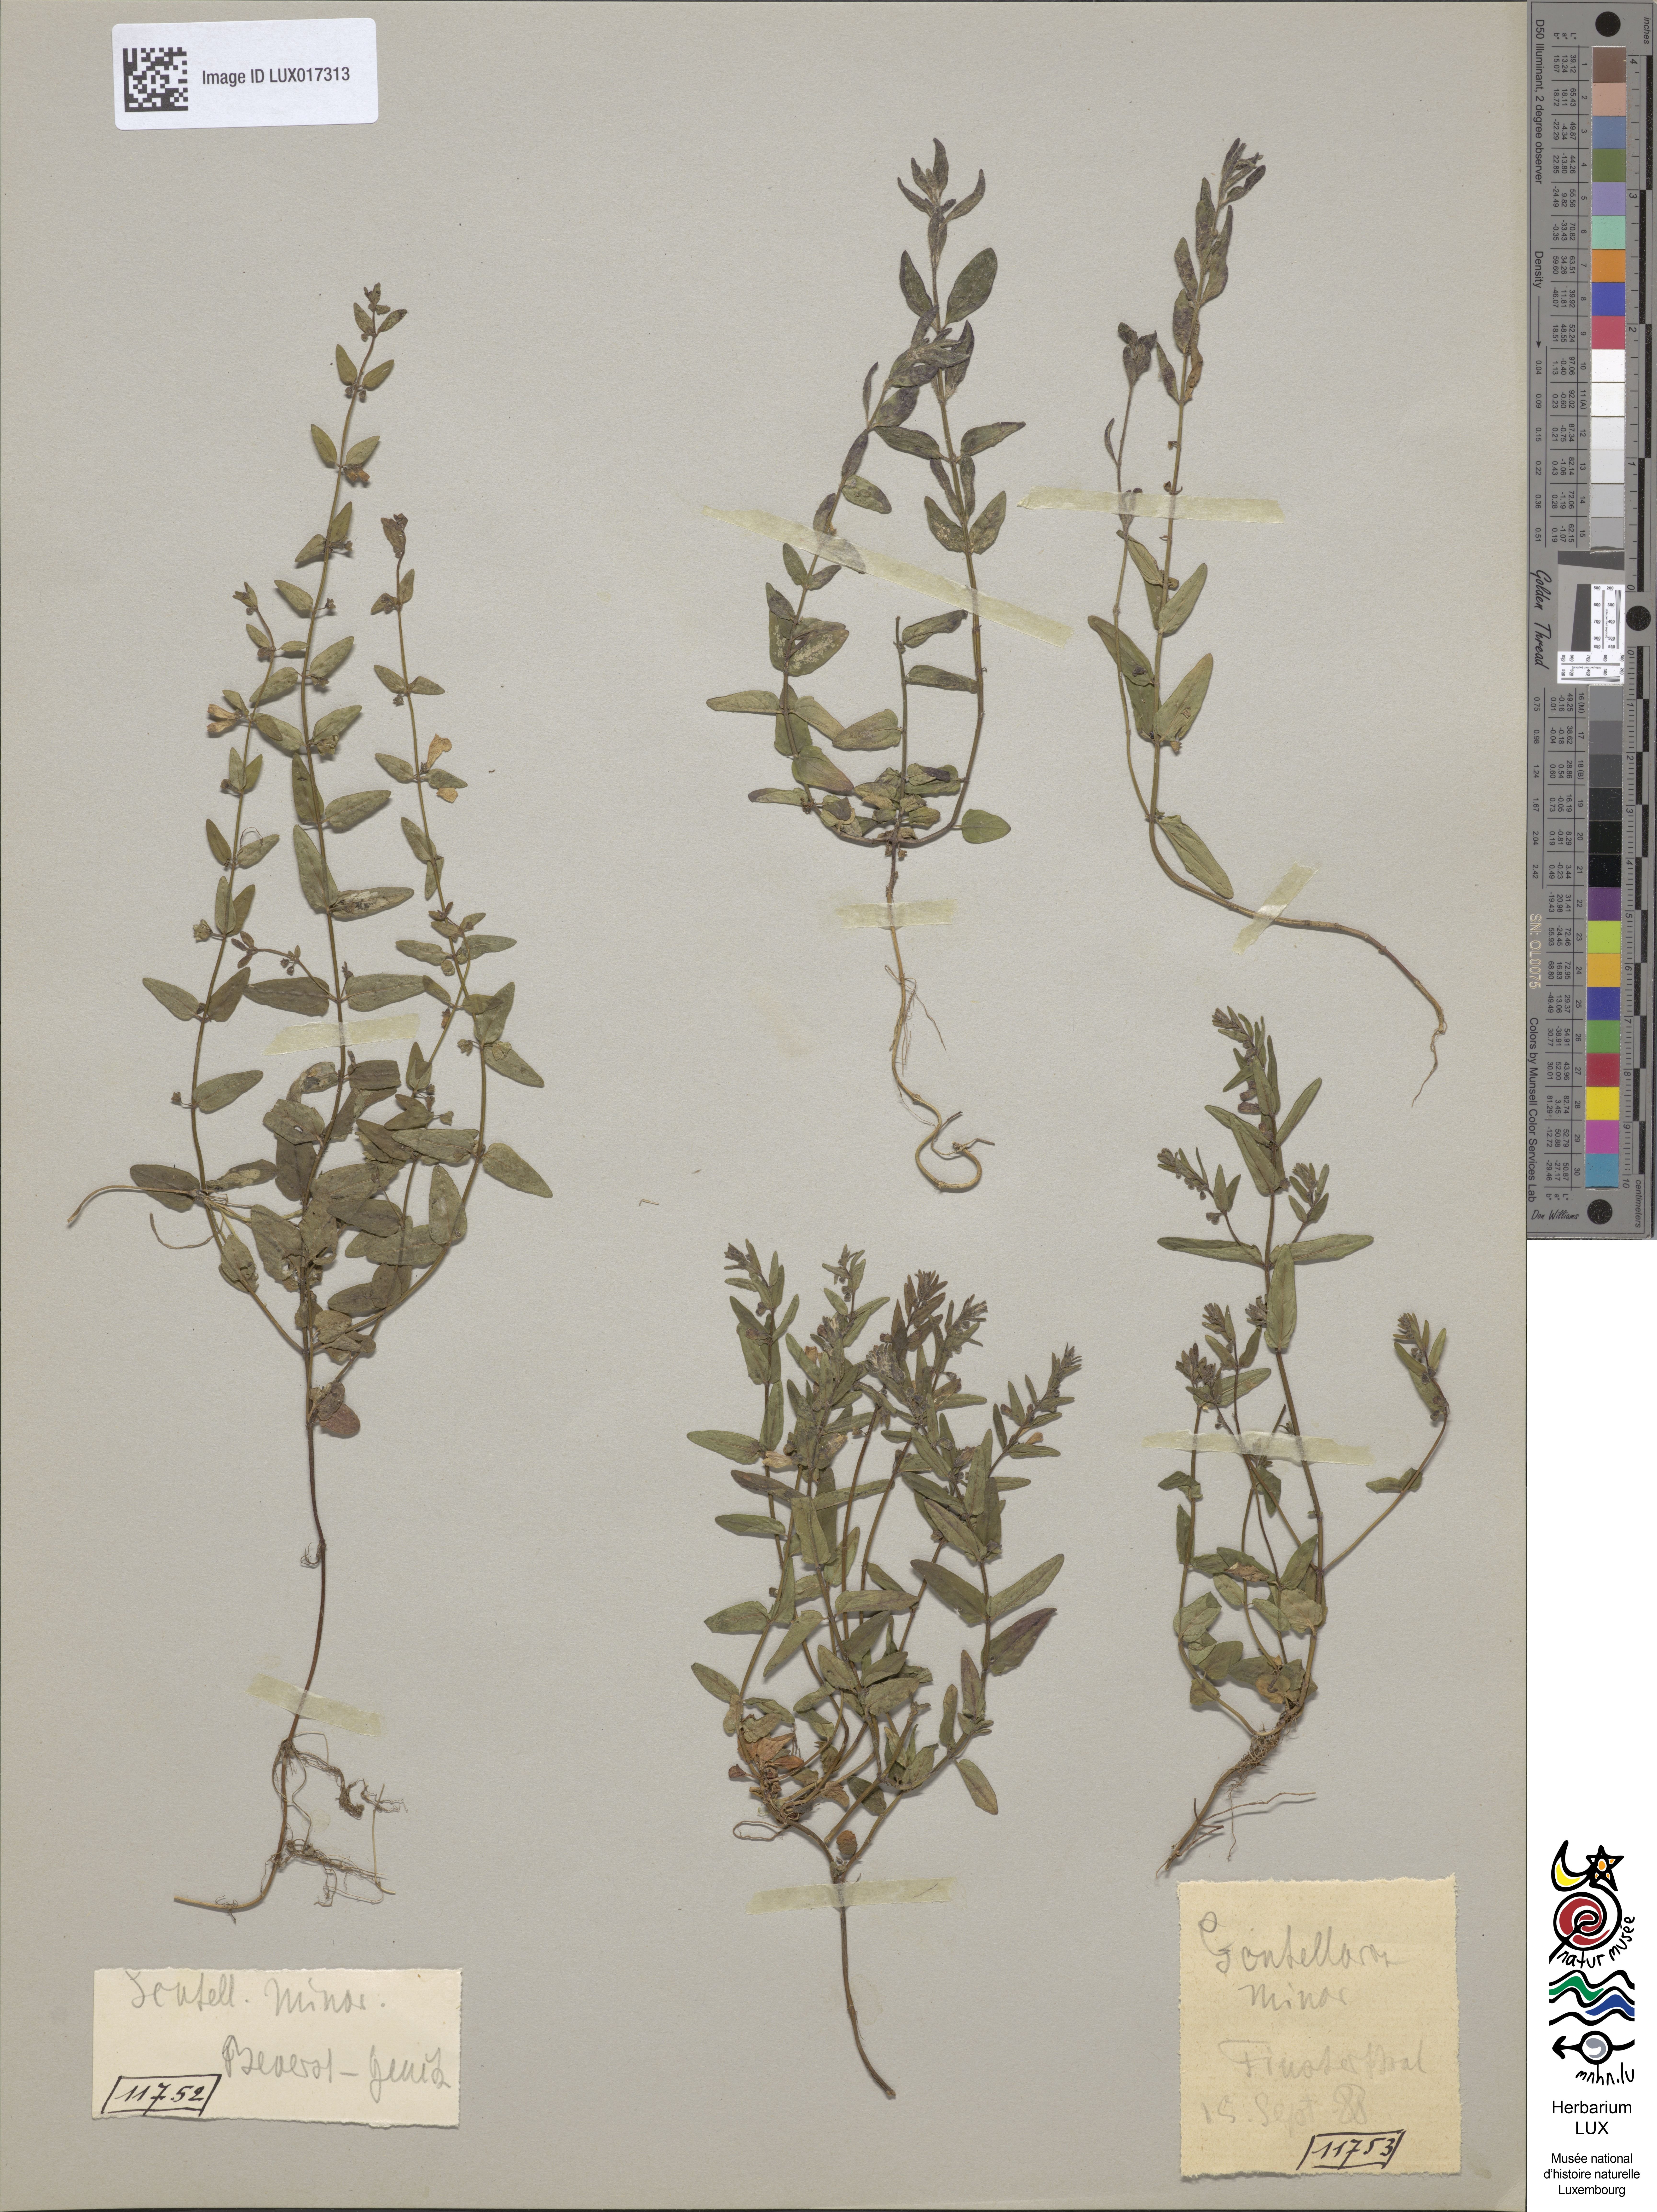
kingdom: Plantae
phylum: Tracheophyta
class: Magnoliopsida
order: Lamiales
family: Lamiaceae
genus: Scutellaria
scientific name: Scutellaria minor
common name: Lesser skullcap
